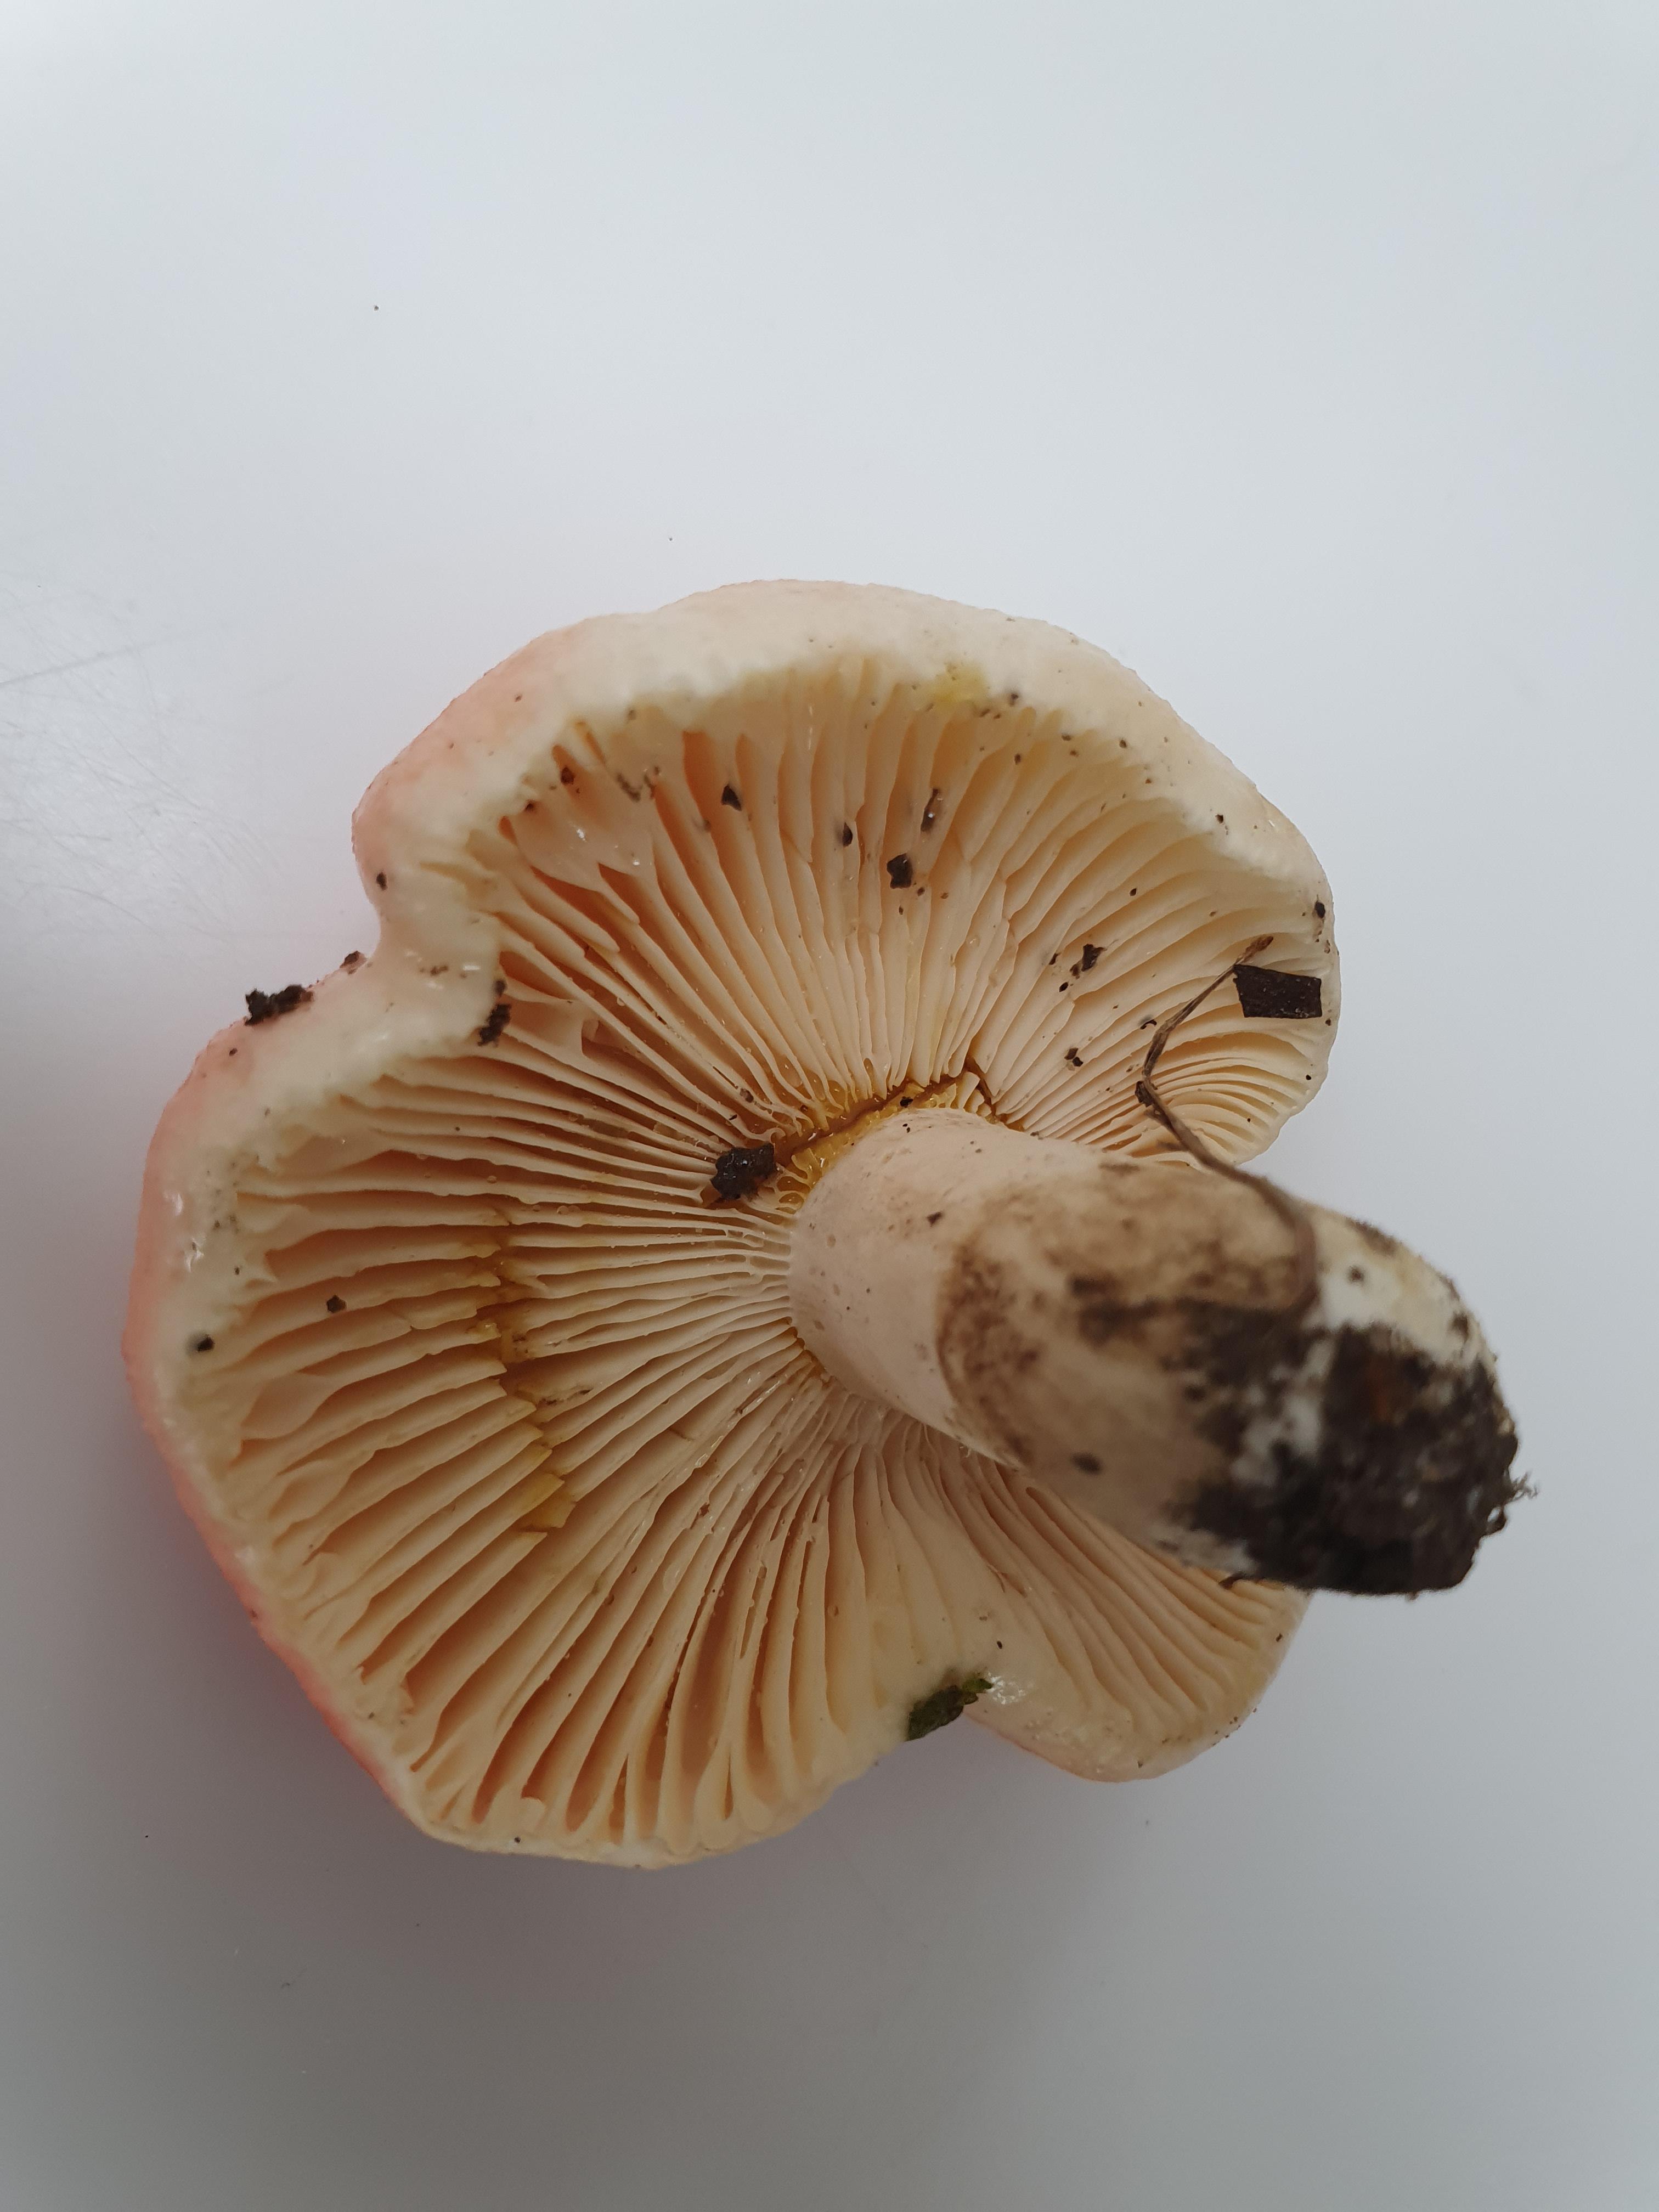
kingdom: Fungi
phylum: Basidiomycota
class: Agaricomycetes
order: Russulales
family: Russulaceae
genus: Russula
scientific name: Russula luteotacta
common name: gulplettet gift-skørhat
